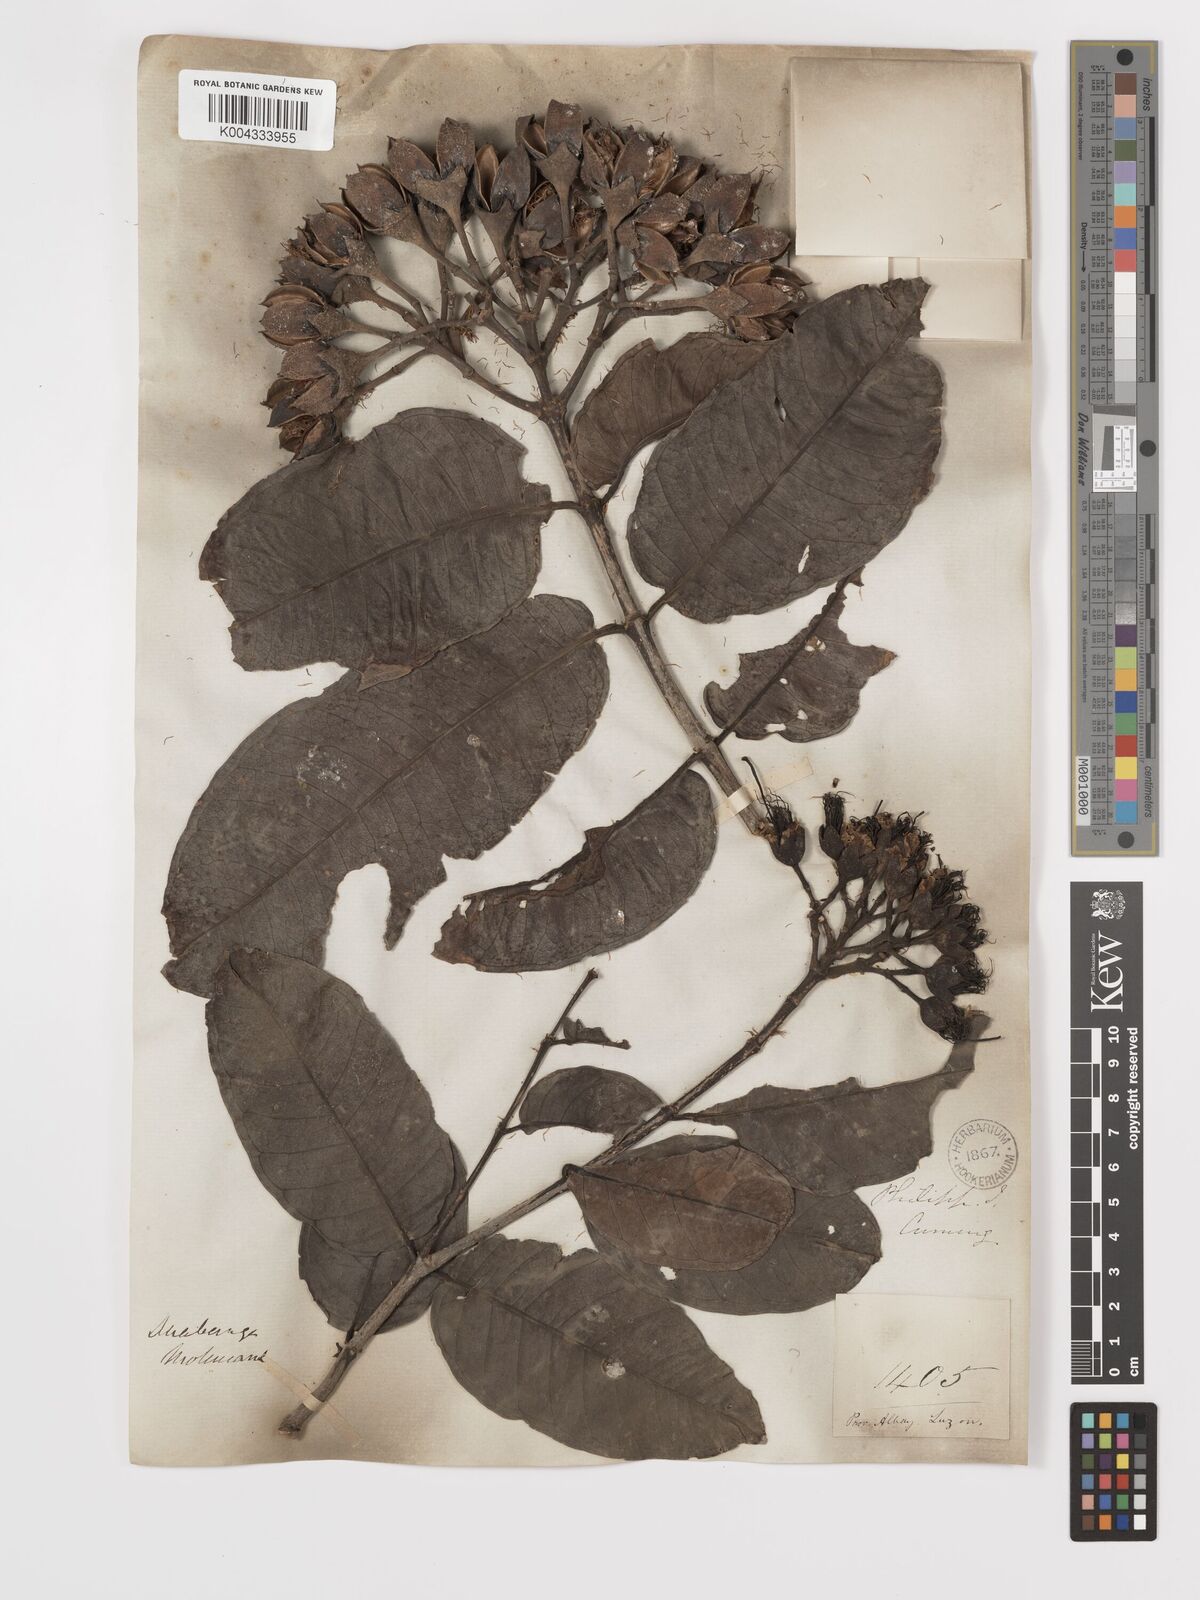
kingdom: Plantae
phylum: Tracheophyta
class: Magnoliopsida
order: Myrtales
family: Lythraceae
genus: Duabanga
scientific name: Duabanga moluccana
